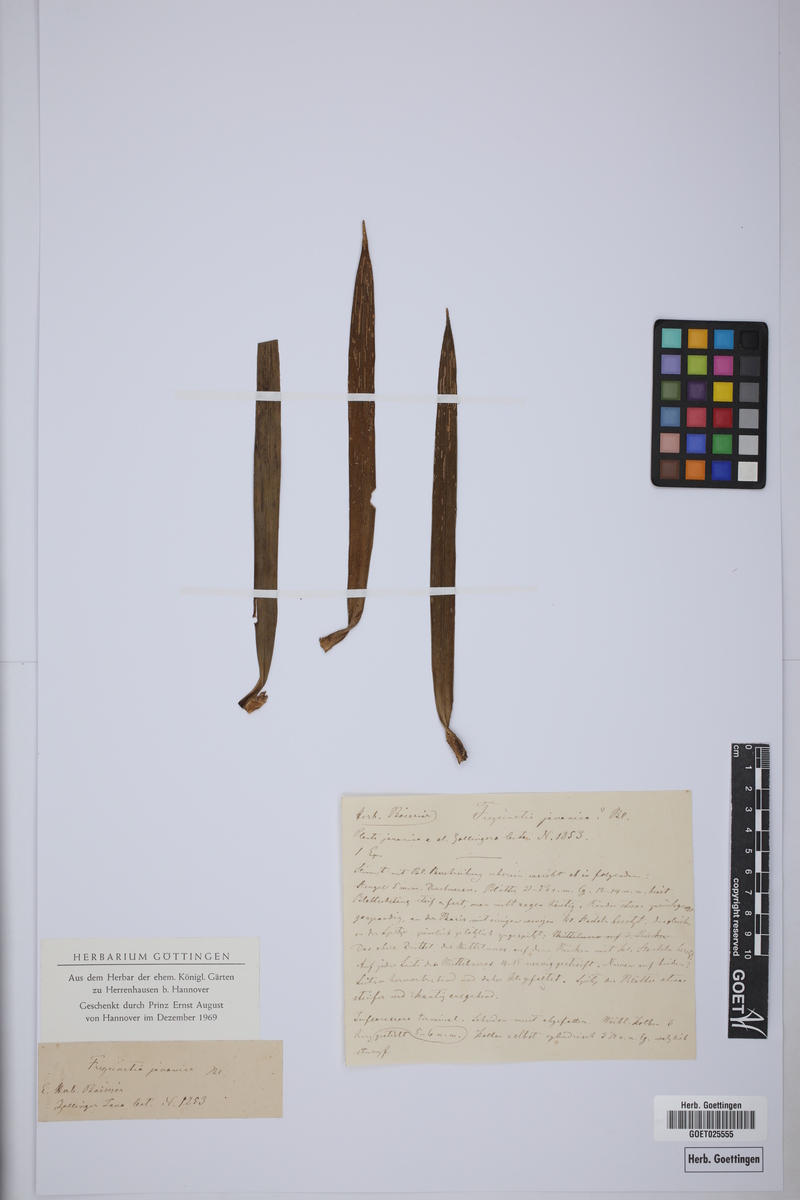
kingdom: Plantae
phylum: Tracheophyta
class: Liliopsida
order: Pandanales
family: Pandanaceae
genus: Freycinetia
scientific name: Freycinetia javanica
